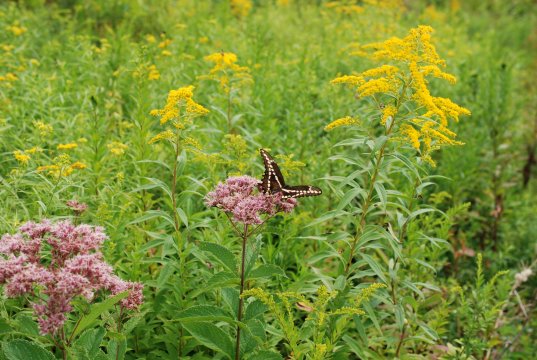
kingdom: Animalia
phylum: Arthropoda
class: Insecta
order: Lepidoptera
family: Papilionidae
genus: Papilio
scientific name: Papilio cresphontes
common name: Eastern Giant Swallowtail
